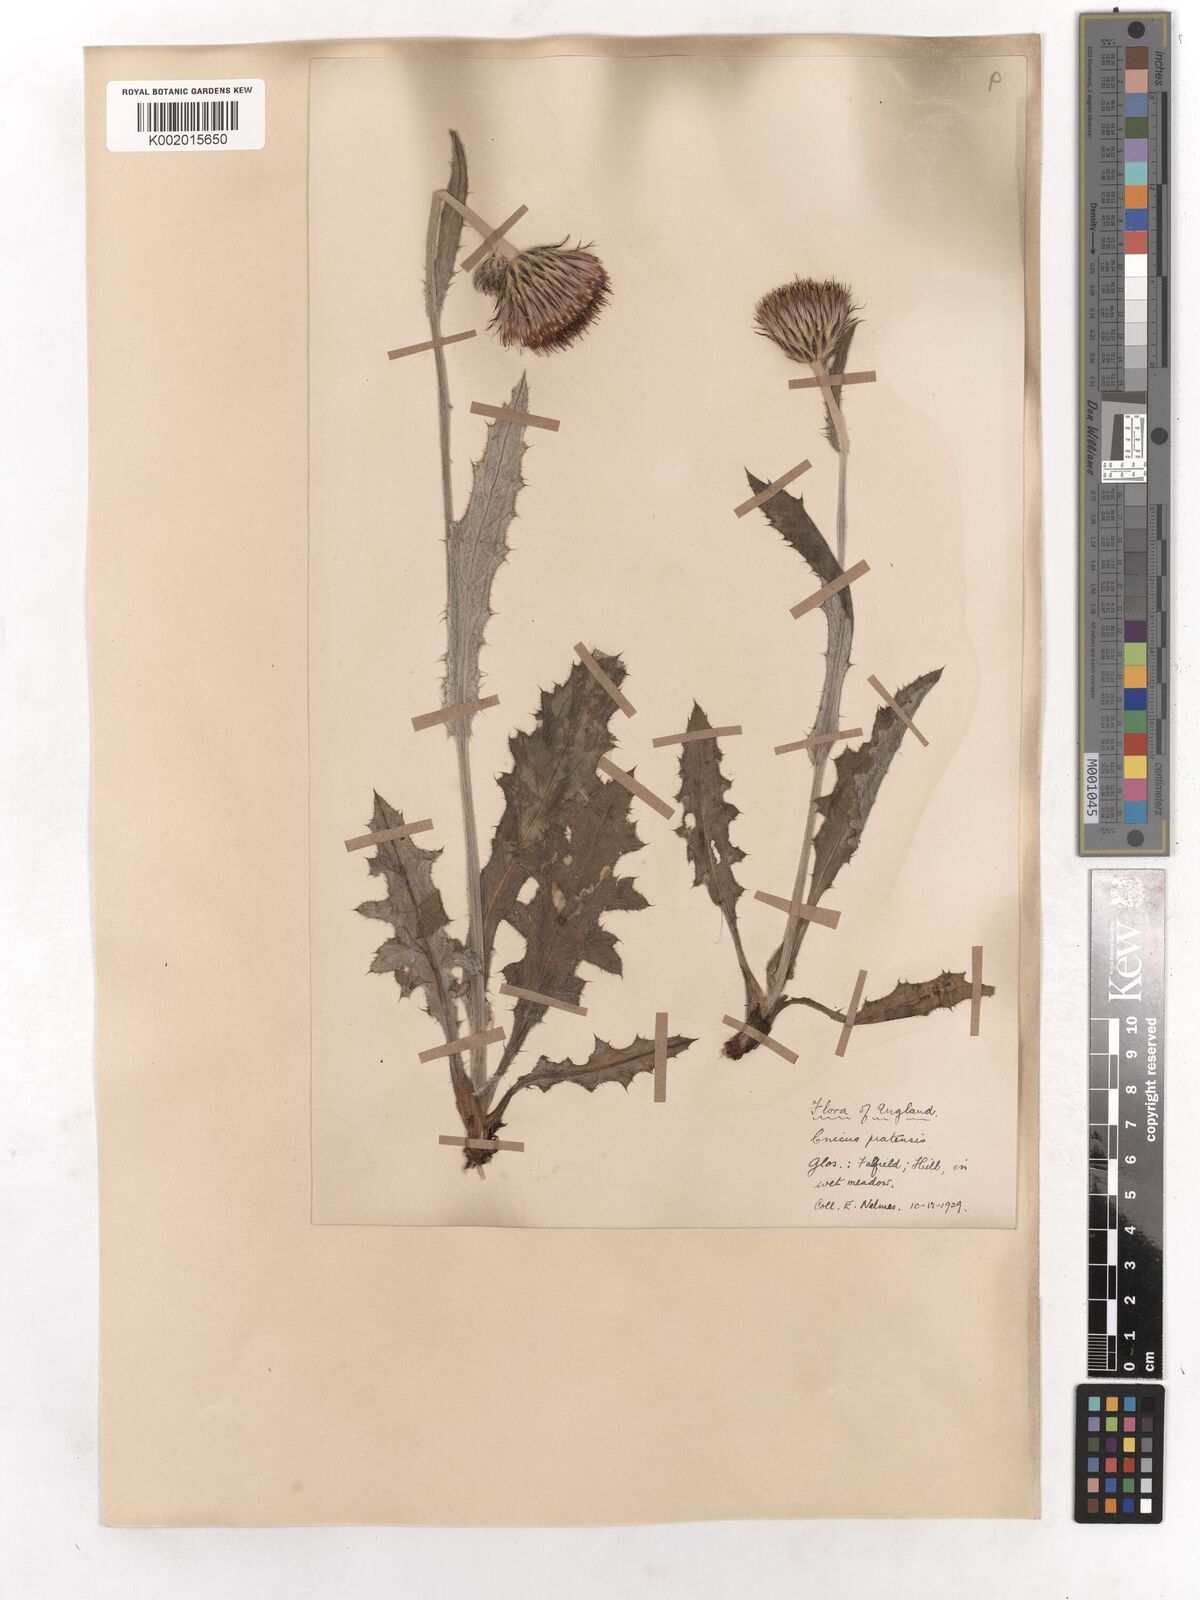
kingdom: Plantae
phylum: Tracheophyta
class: Magnoliopsida
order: Asterales
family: Asteraceae
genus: Cirsium
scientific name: Cirsium dissectum
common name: Meadow thistle
